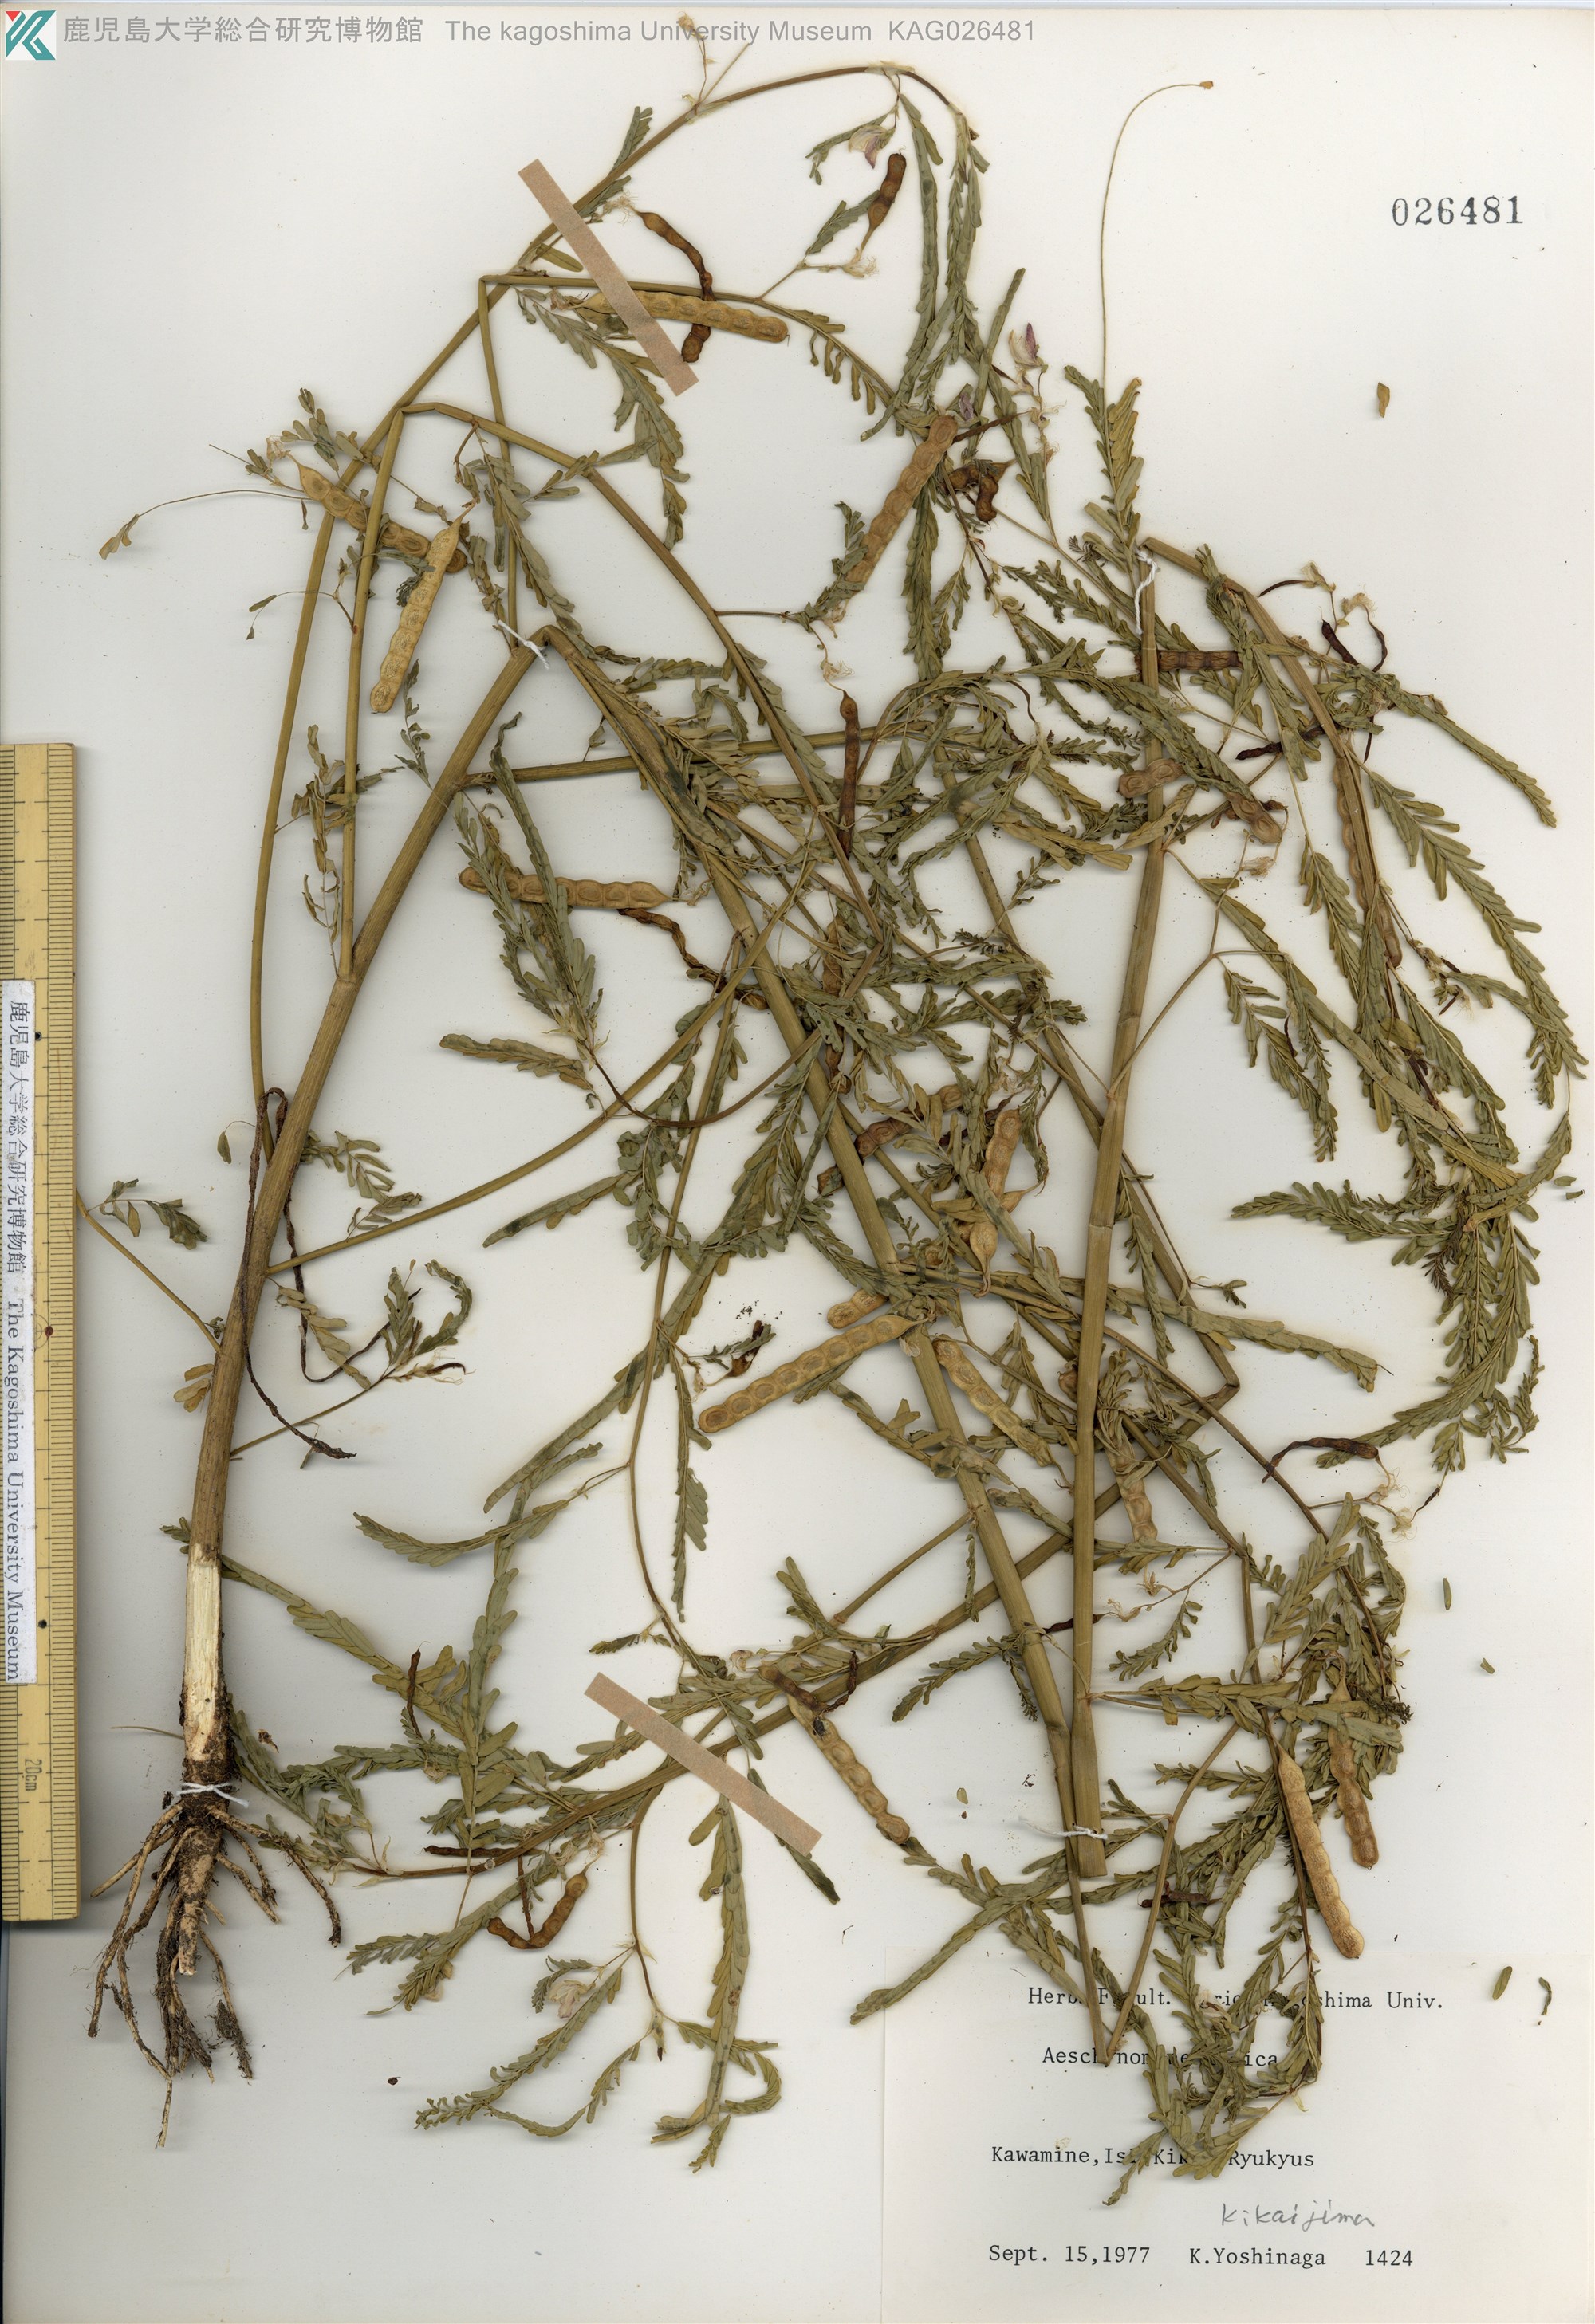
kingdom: Plantae
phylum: Tracheophyta
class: Magnoliopsida
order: Fabales
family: Fabaceae
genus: Aeschynomene
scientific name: Aeschynomene indica
